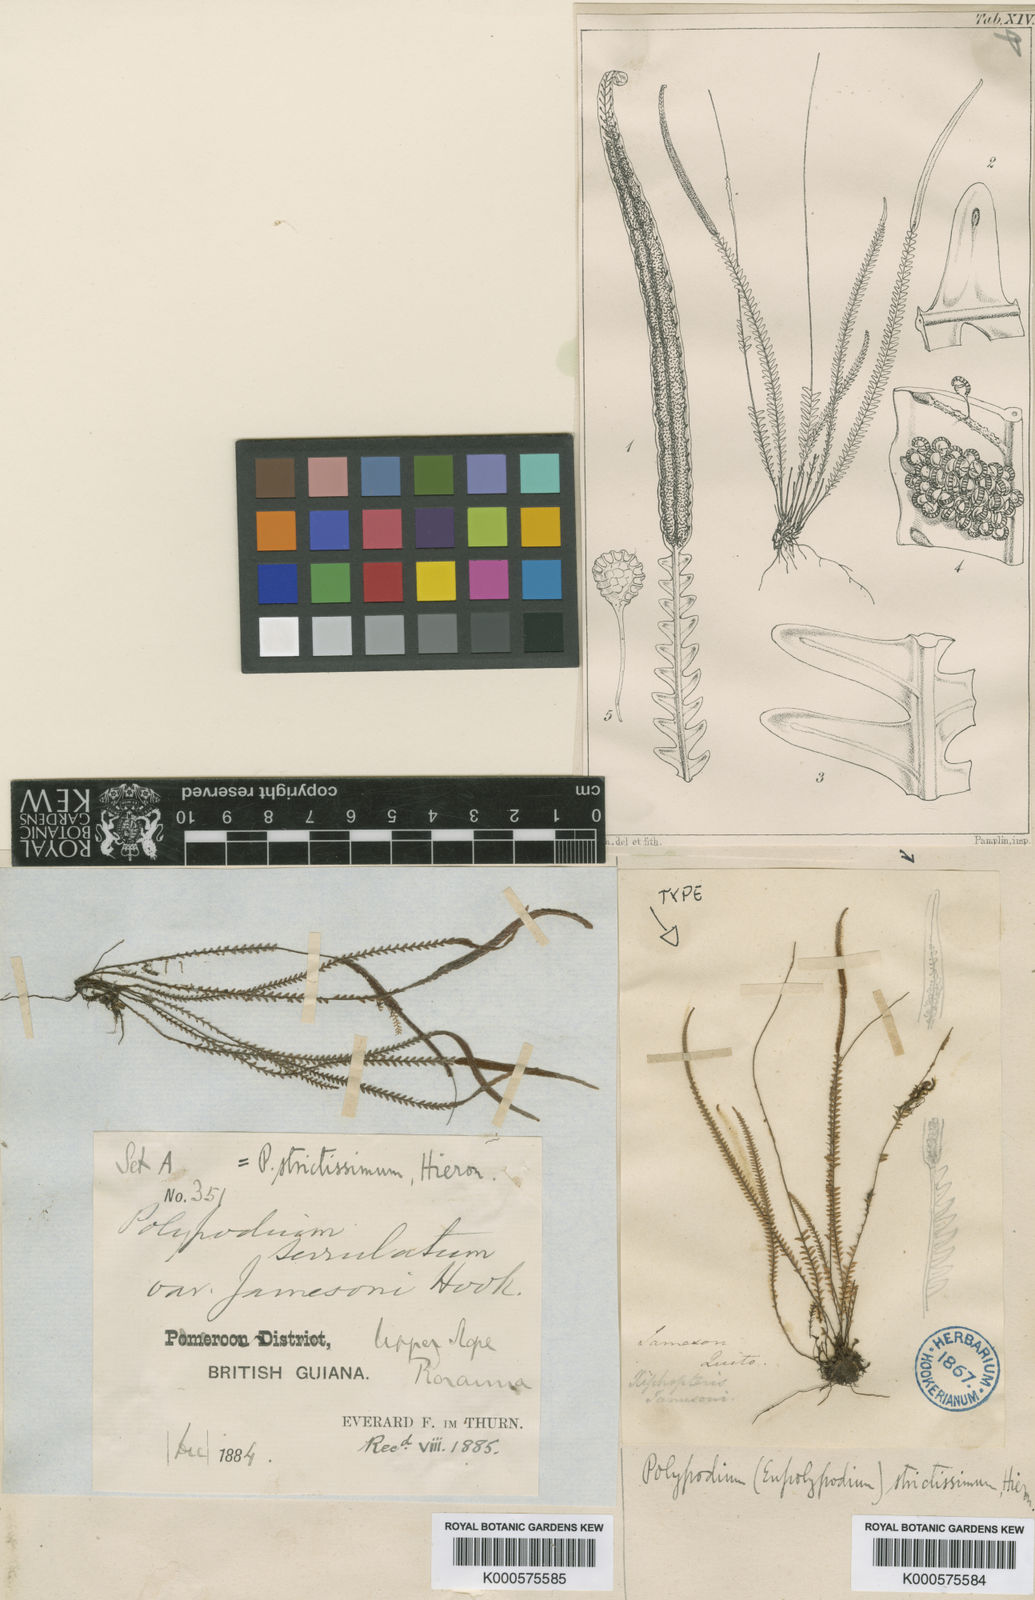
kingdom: Plantae
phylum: Tracheophyta
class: Polypodiopsida
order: Polypodiales
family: Polypodiaceae
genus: Stenogrammitis
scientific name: Stenogrammitis myosuroides
